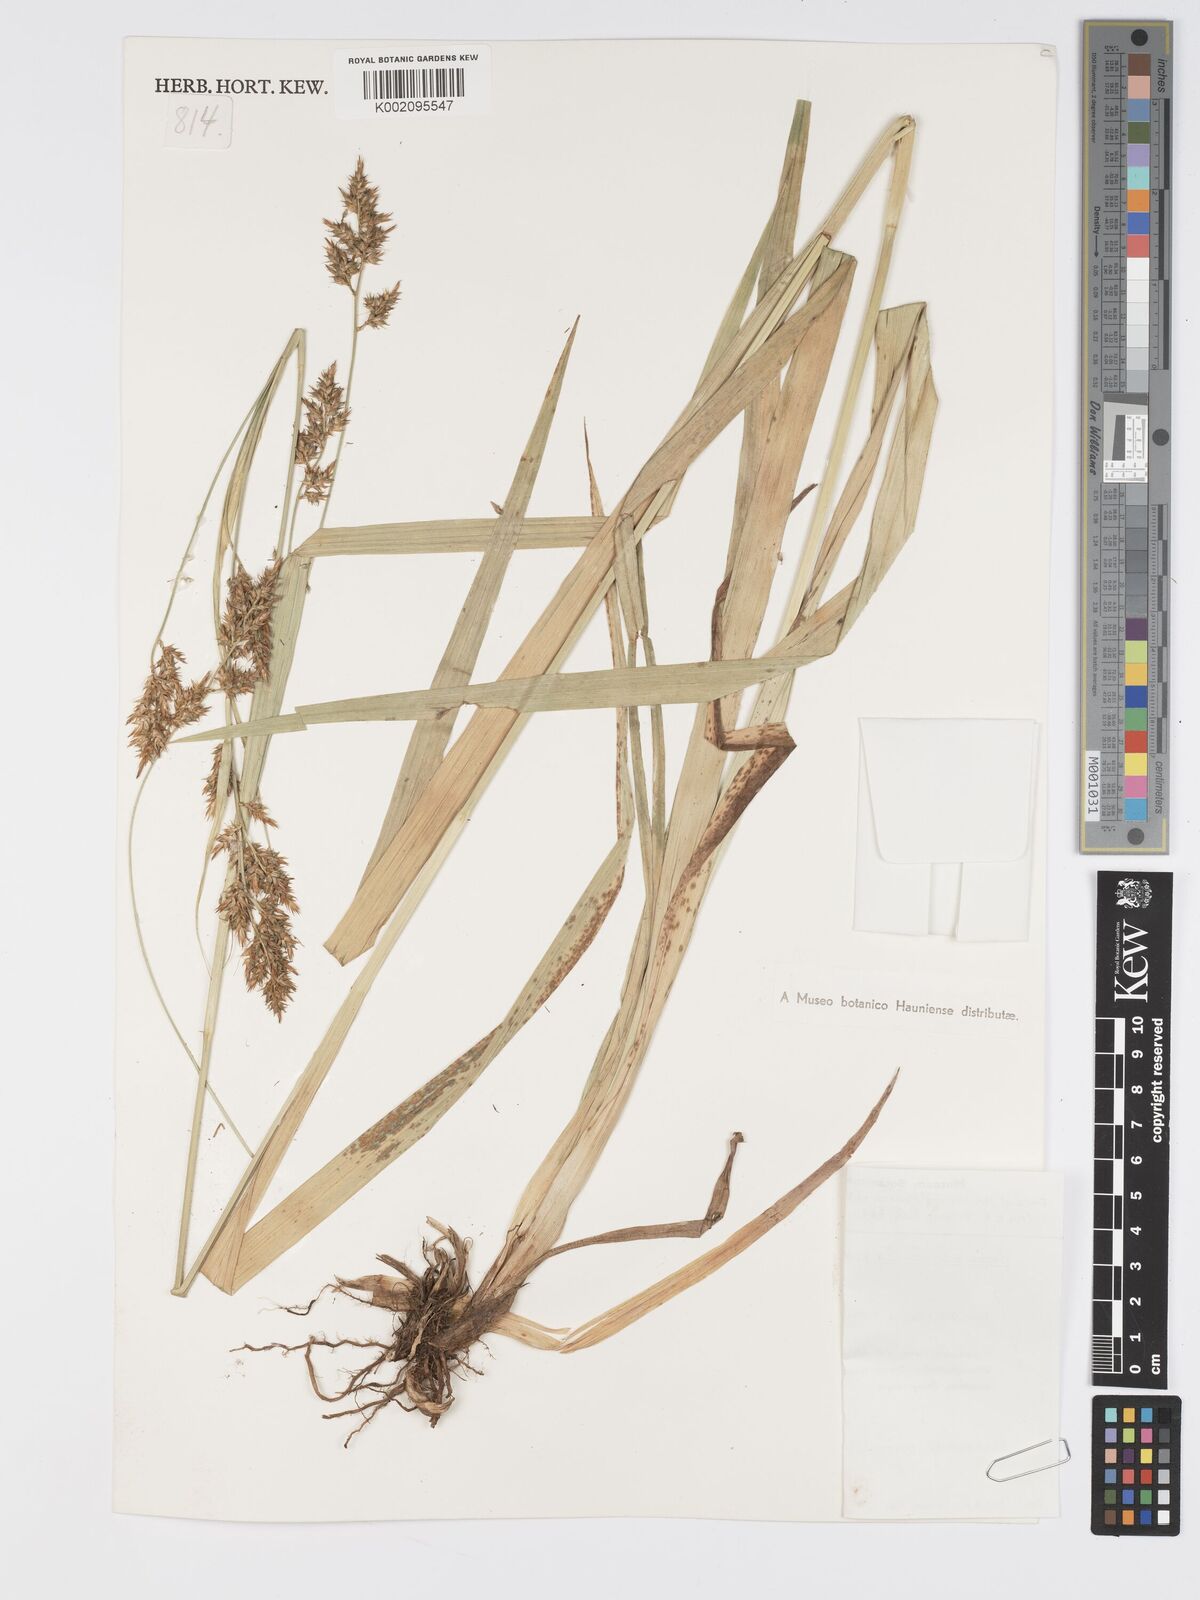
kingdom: Plantae
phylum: Tracheophyta
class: Liliopsida
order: Poales
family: Cyperaceae
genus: Carex
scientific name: Carex echinochloe
